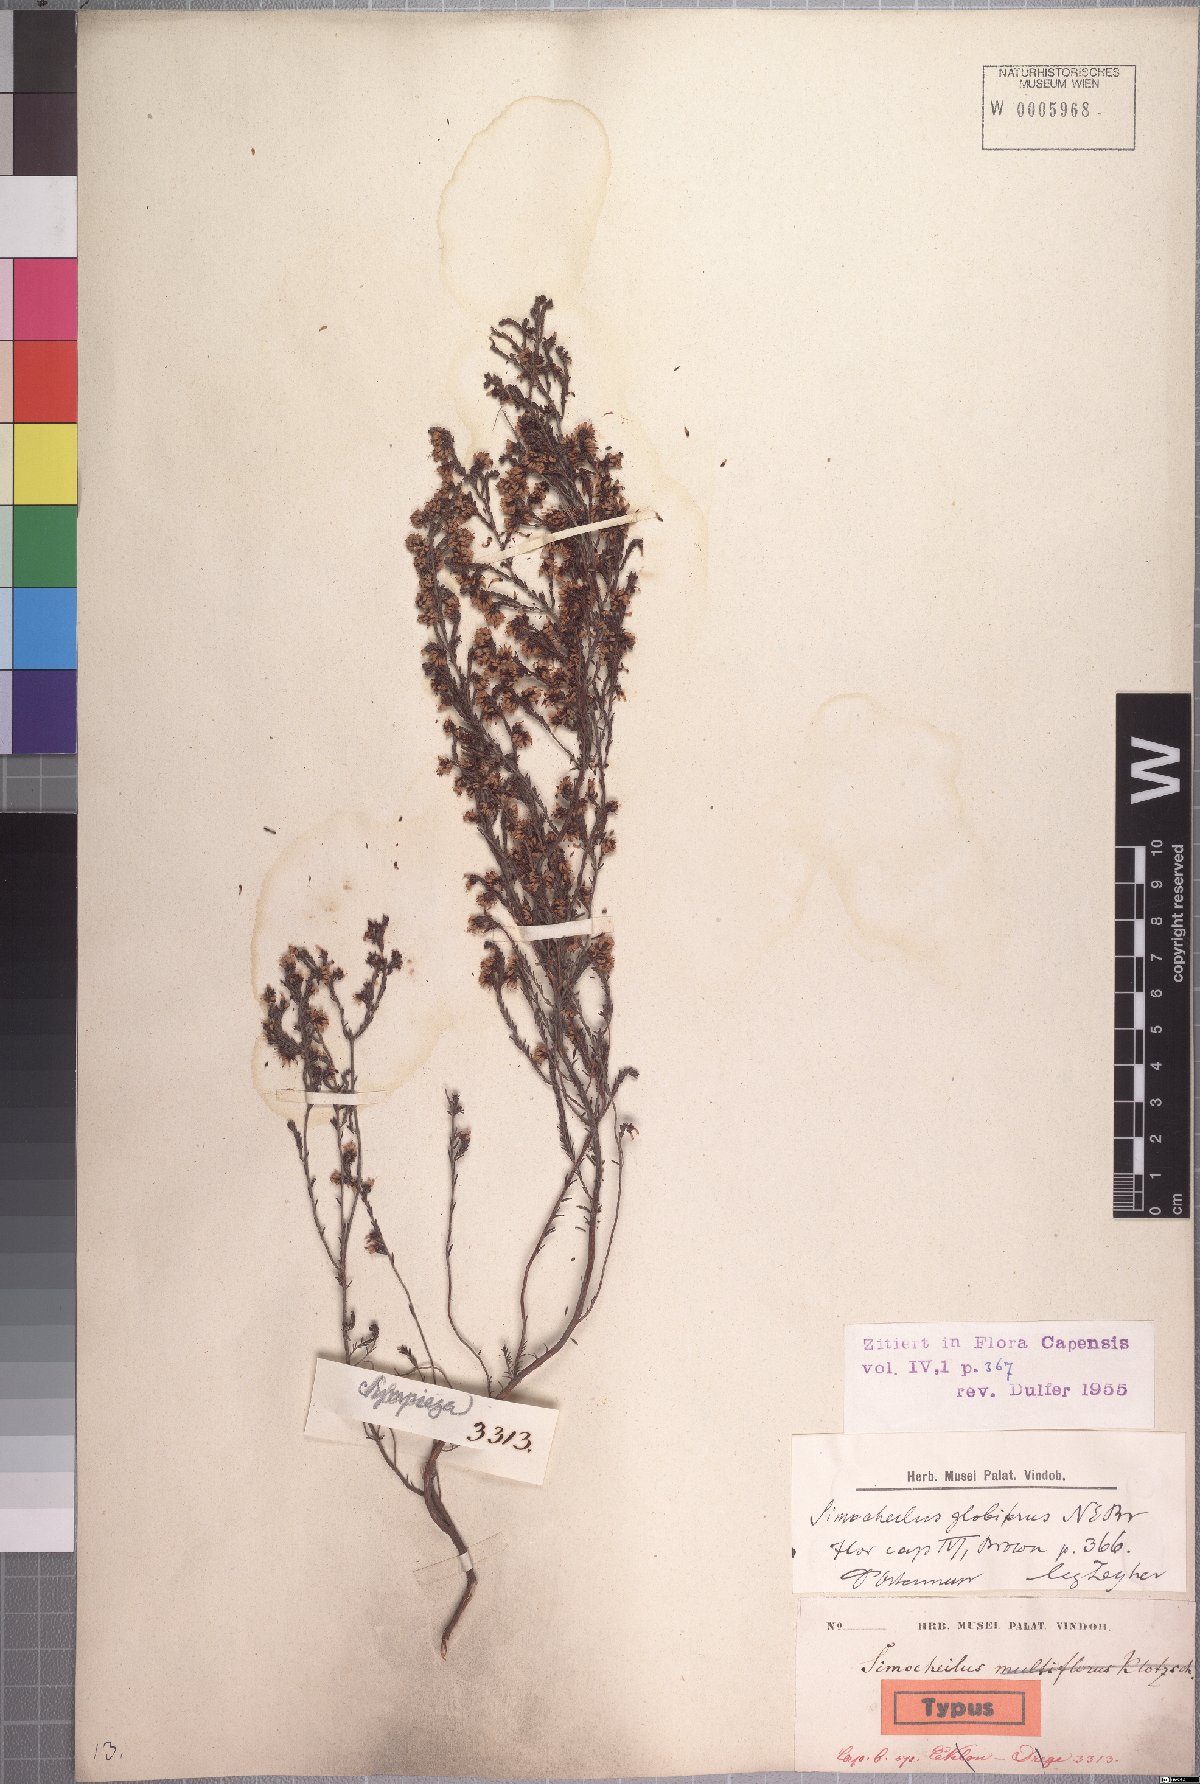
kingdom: Plantae
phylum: Tracheophyta
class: Magnoliopsida
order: Ericales
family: Ericaceae
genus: Erica
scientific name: Erica glabella
